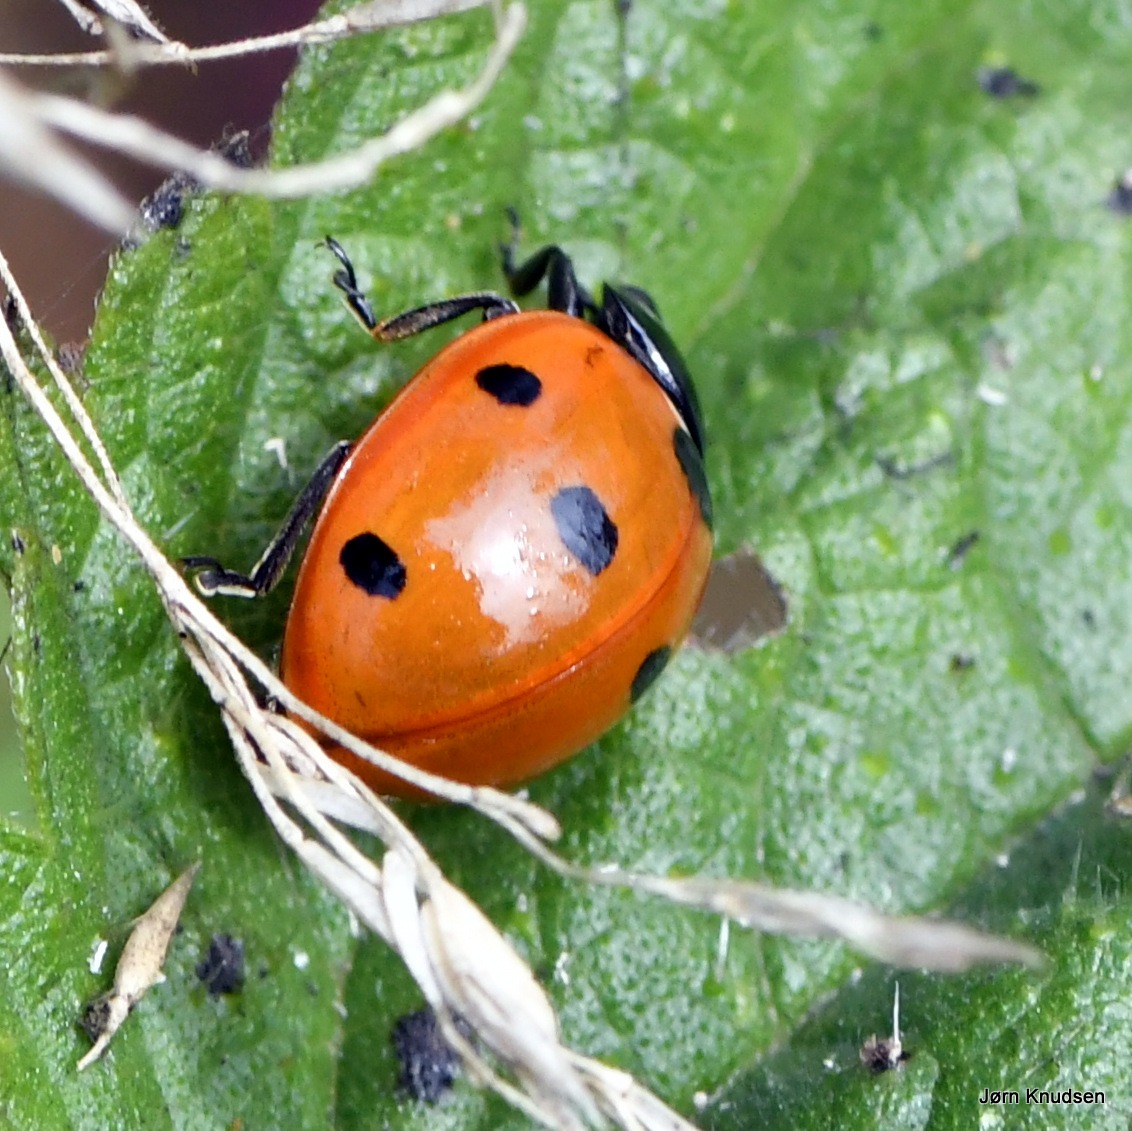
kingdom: Animalia
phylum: Arthropoda
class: Insecta
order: Coleoptera
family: Coccinellidae
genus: Coccinella
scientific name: Coccinella septempunctata
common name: Syvplettet mariehøne
